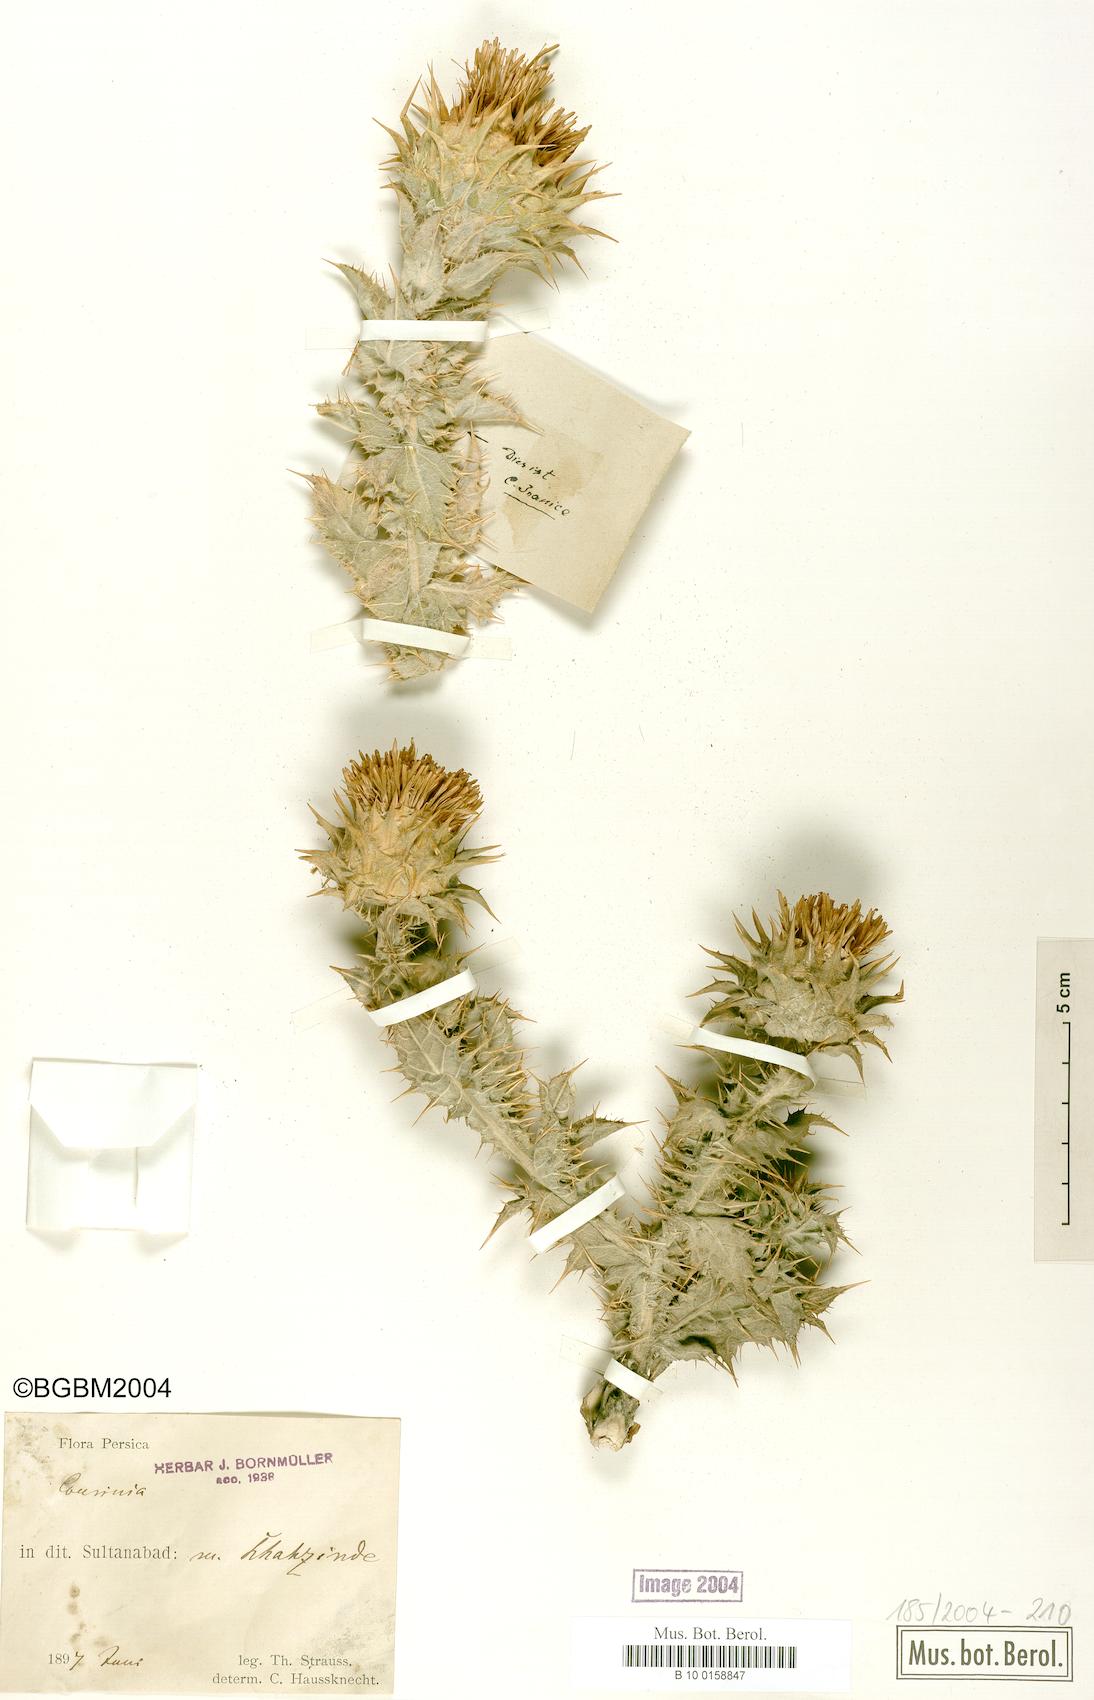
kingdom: Plantae
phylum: Tracheophyta
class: Magnoliopsida
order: Asterales
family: Asteraceae
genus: Cousinia
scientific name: Cousinia
